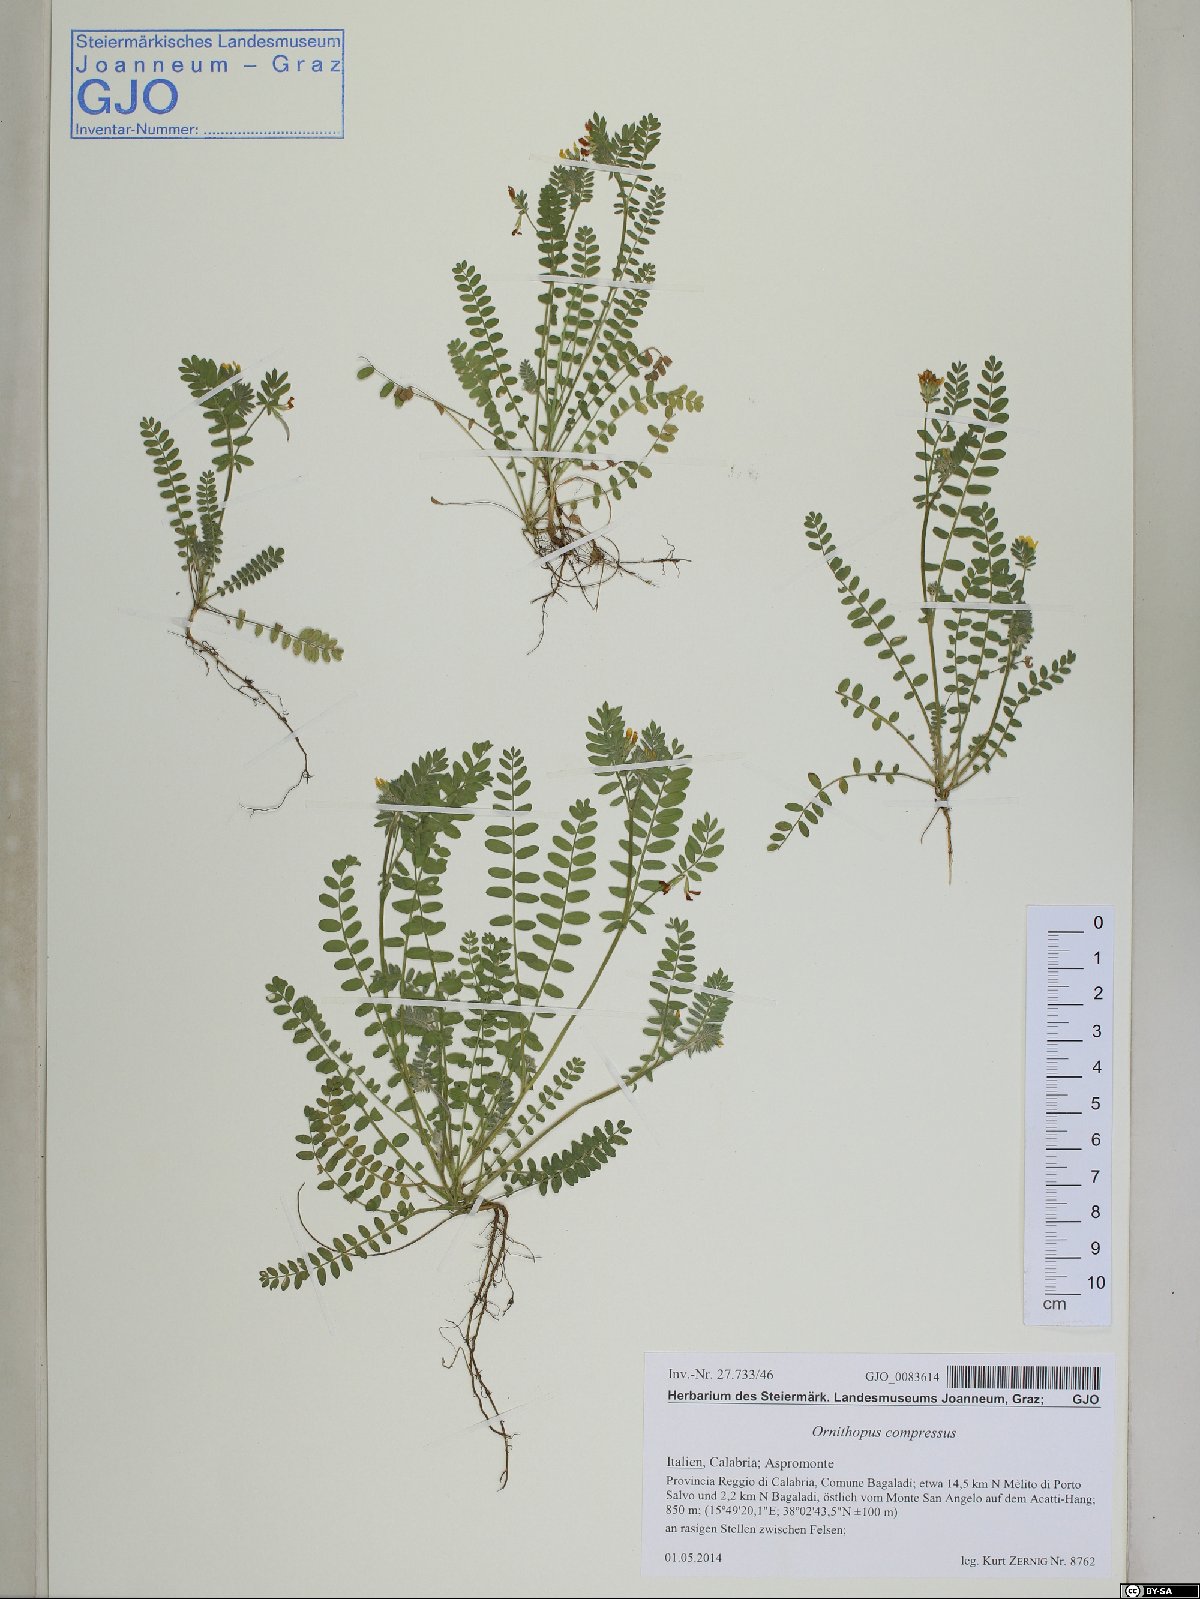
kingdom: Plantae
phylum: Tracheophyta
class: Magnoliopsida
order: Fabales
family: Fabaceae
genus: Ornithopus
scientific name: Ornithopus compressus
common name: Yellow serradella
